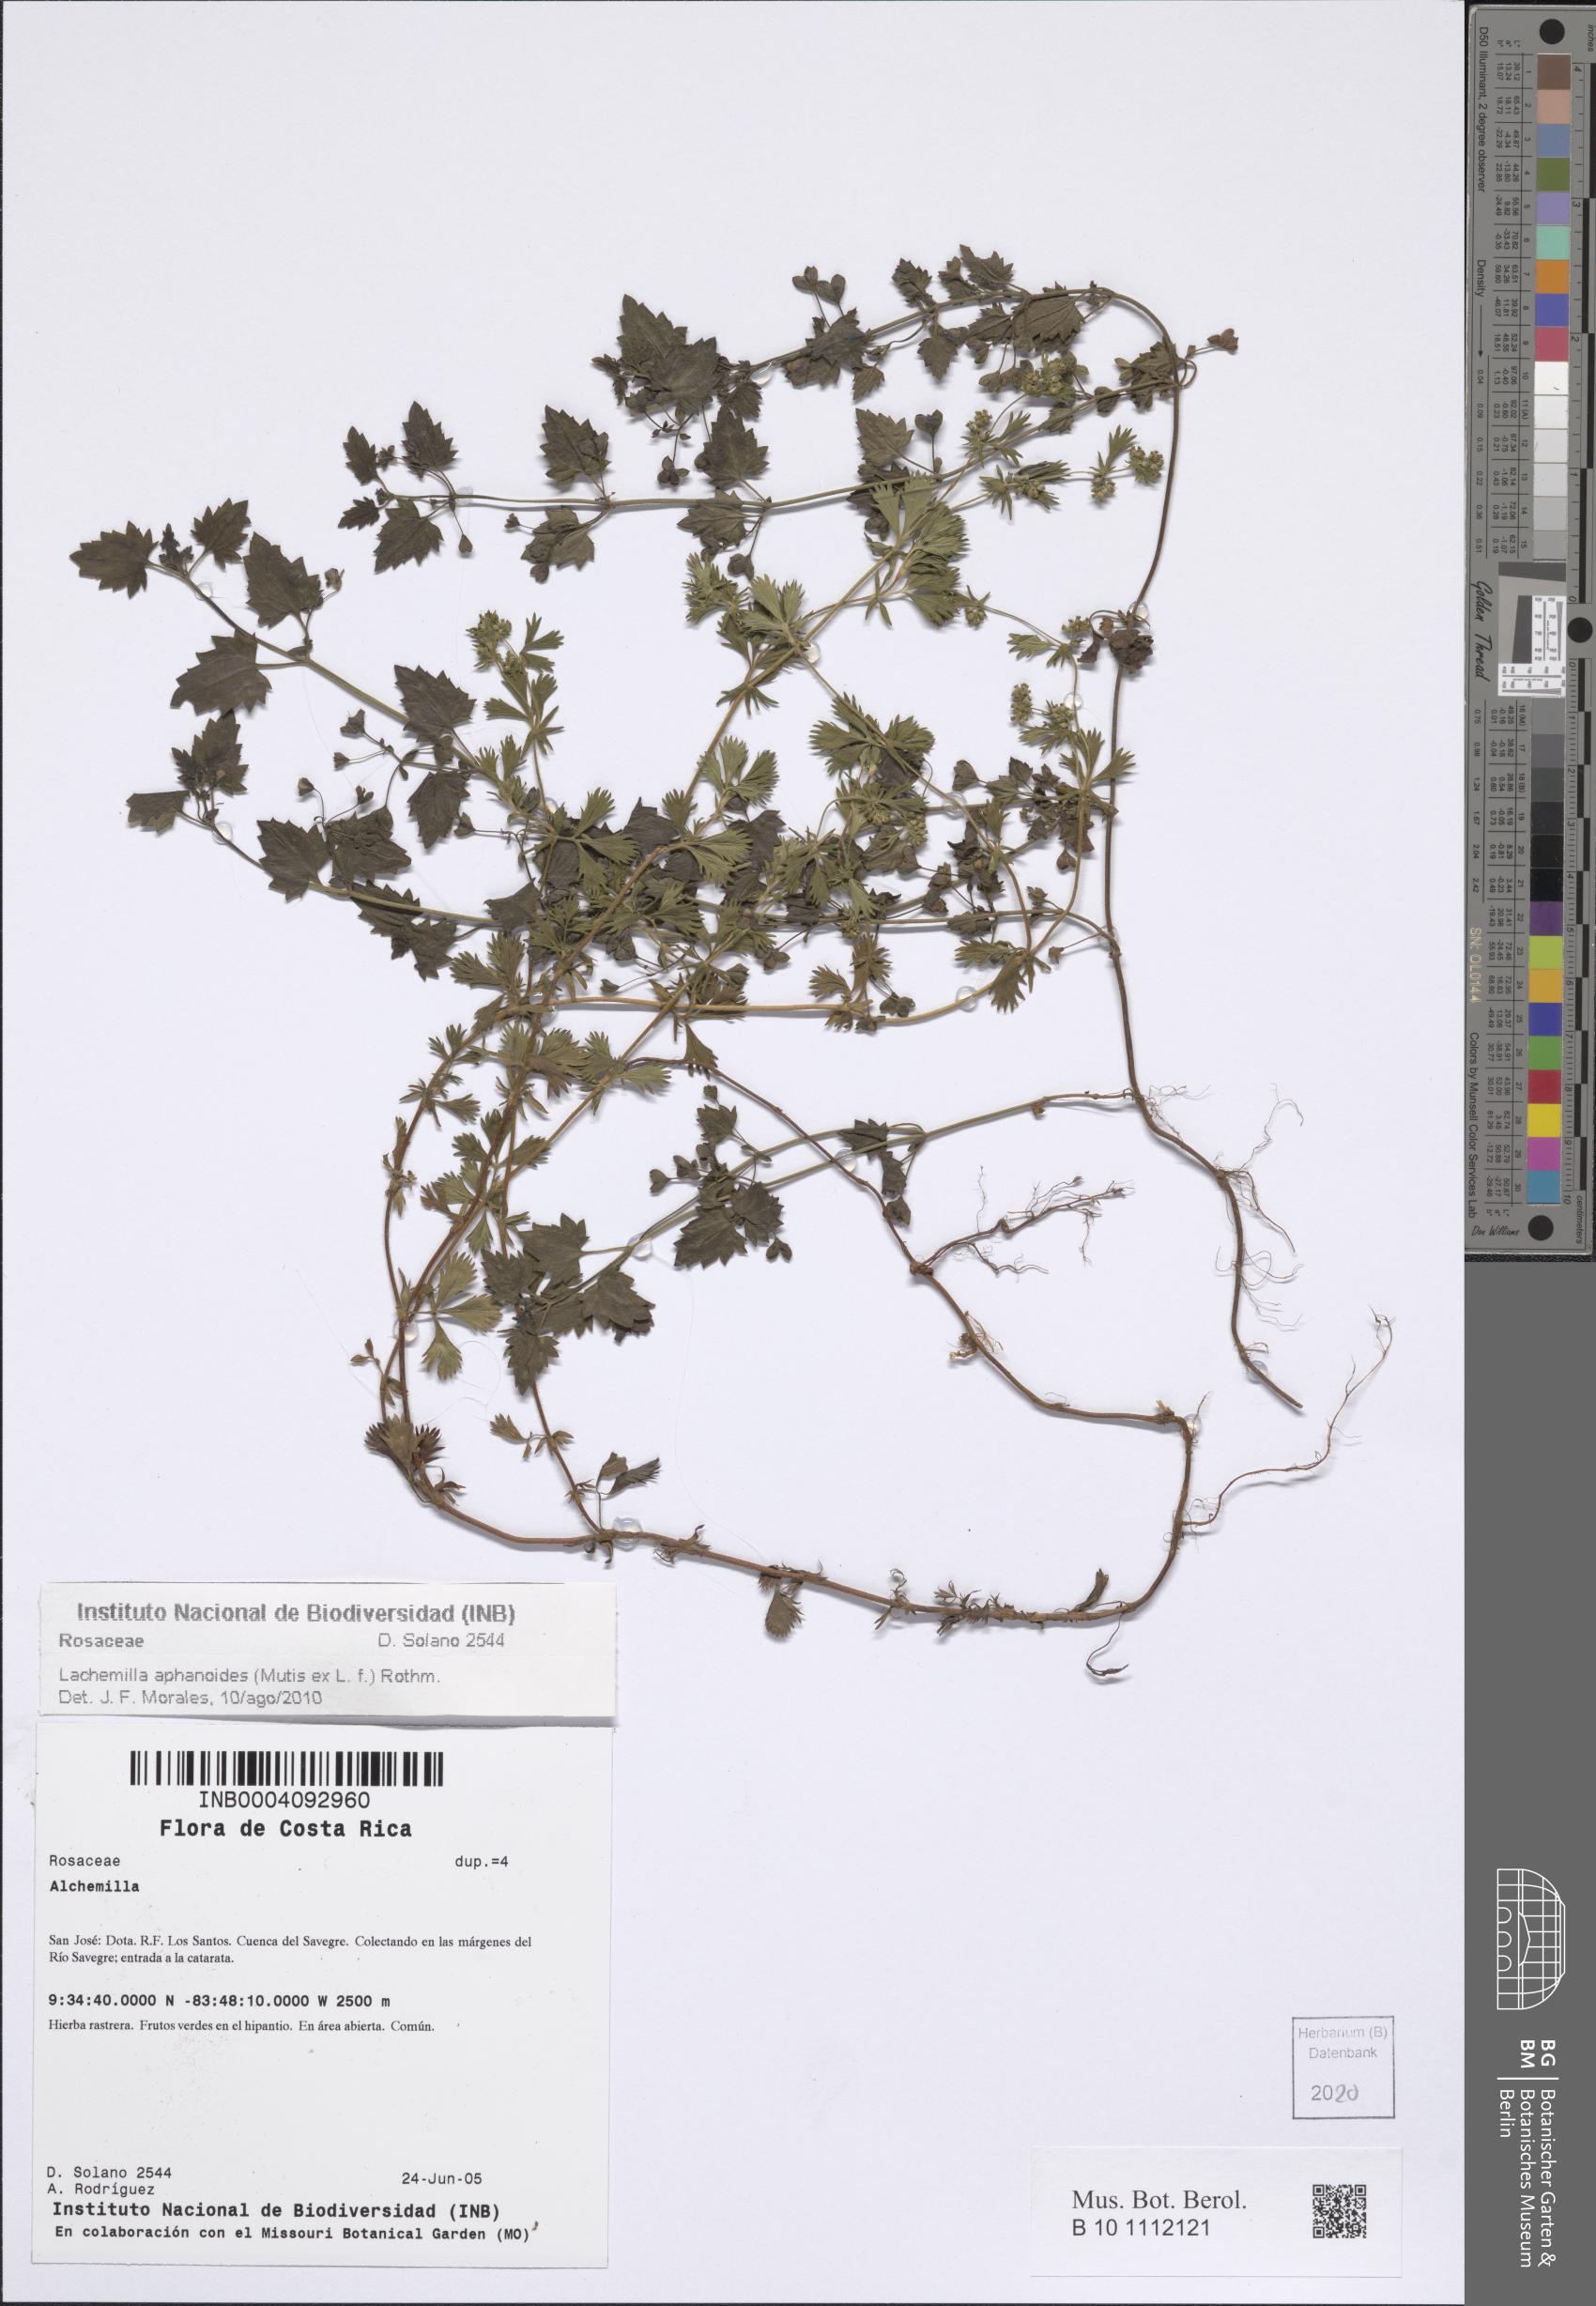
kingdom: Plantae
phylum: Tracheophyta
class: Magnoliopsida
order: Rosales
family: Rosaceae
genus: Lachemilla
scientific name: Lachemilla aphanoides
